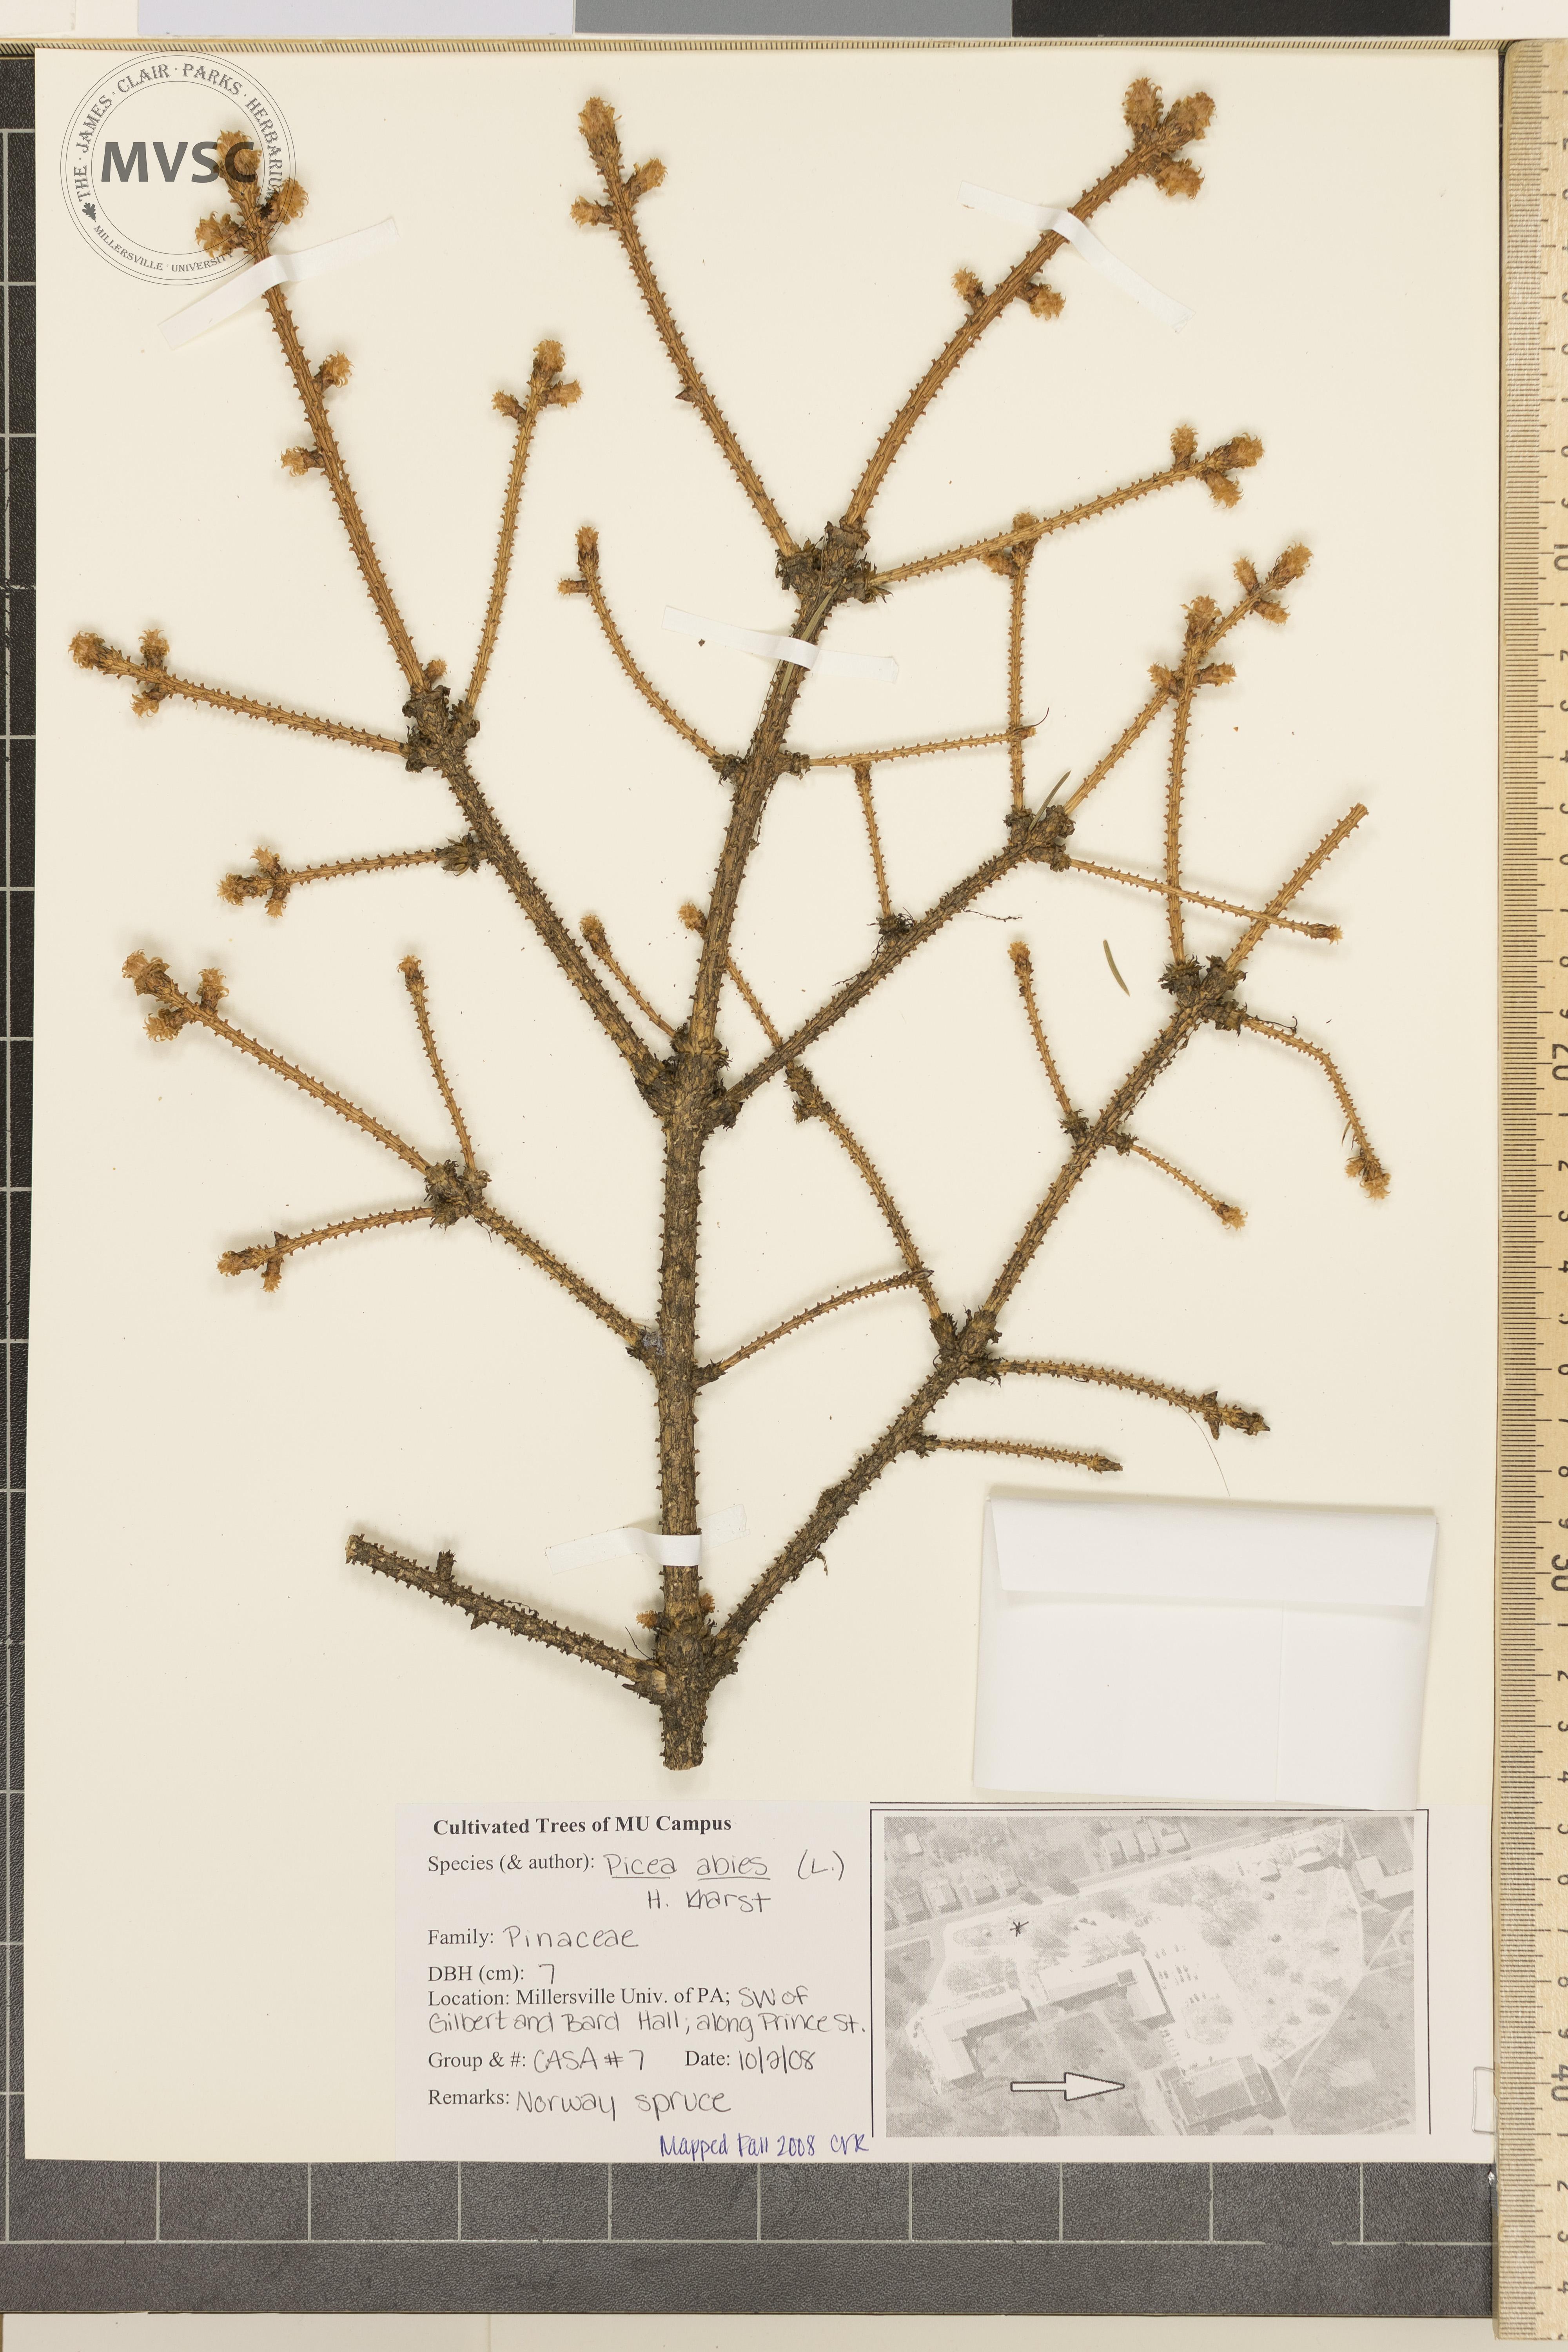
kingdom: Plantae
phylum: Tracheophyta
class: Pinopsida
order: Pinales
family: Pinaceae
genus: Picea
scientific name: Picea abies
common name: Norway spruce
